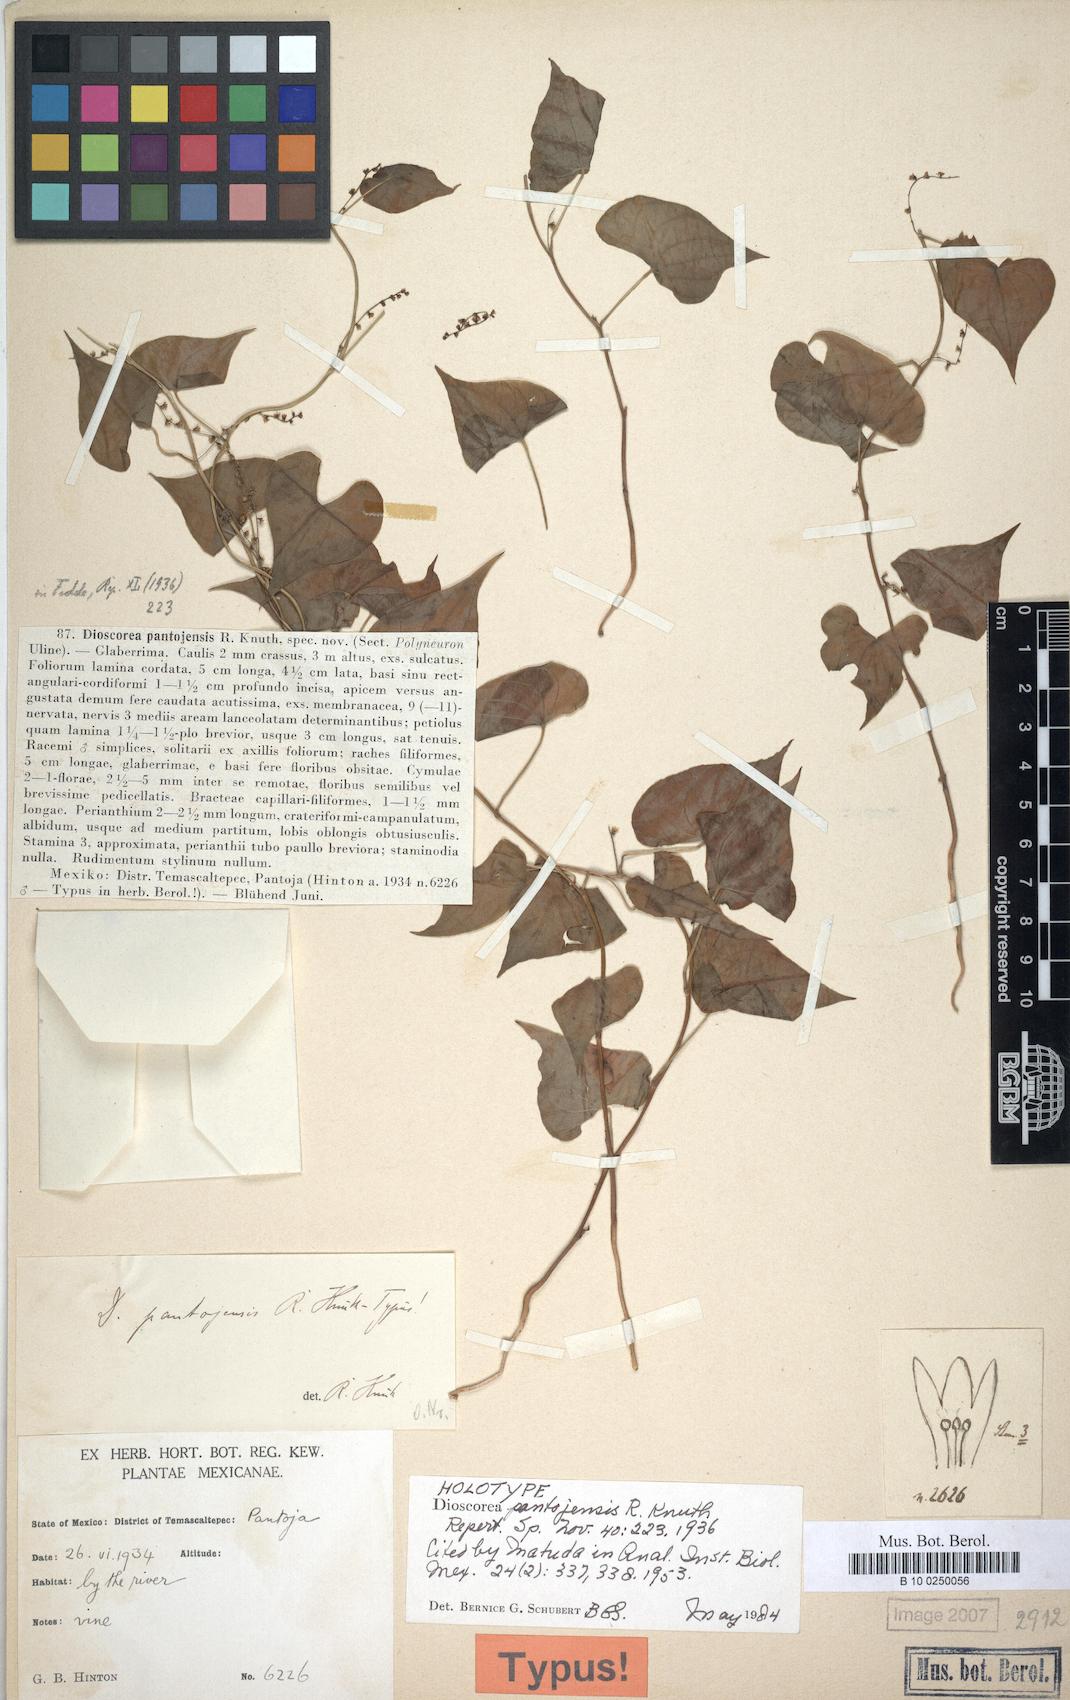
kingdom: Plantae
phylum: Tracheophyta
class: Liliopsida
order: Dioscoreales
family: Dioscoreaceae
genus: Dioscorea
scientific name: Dioscorea pantojensis
